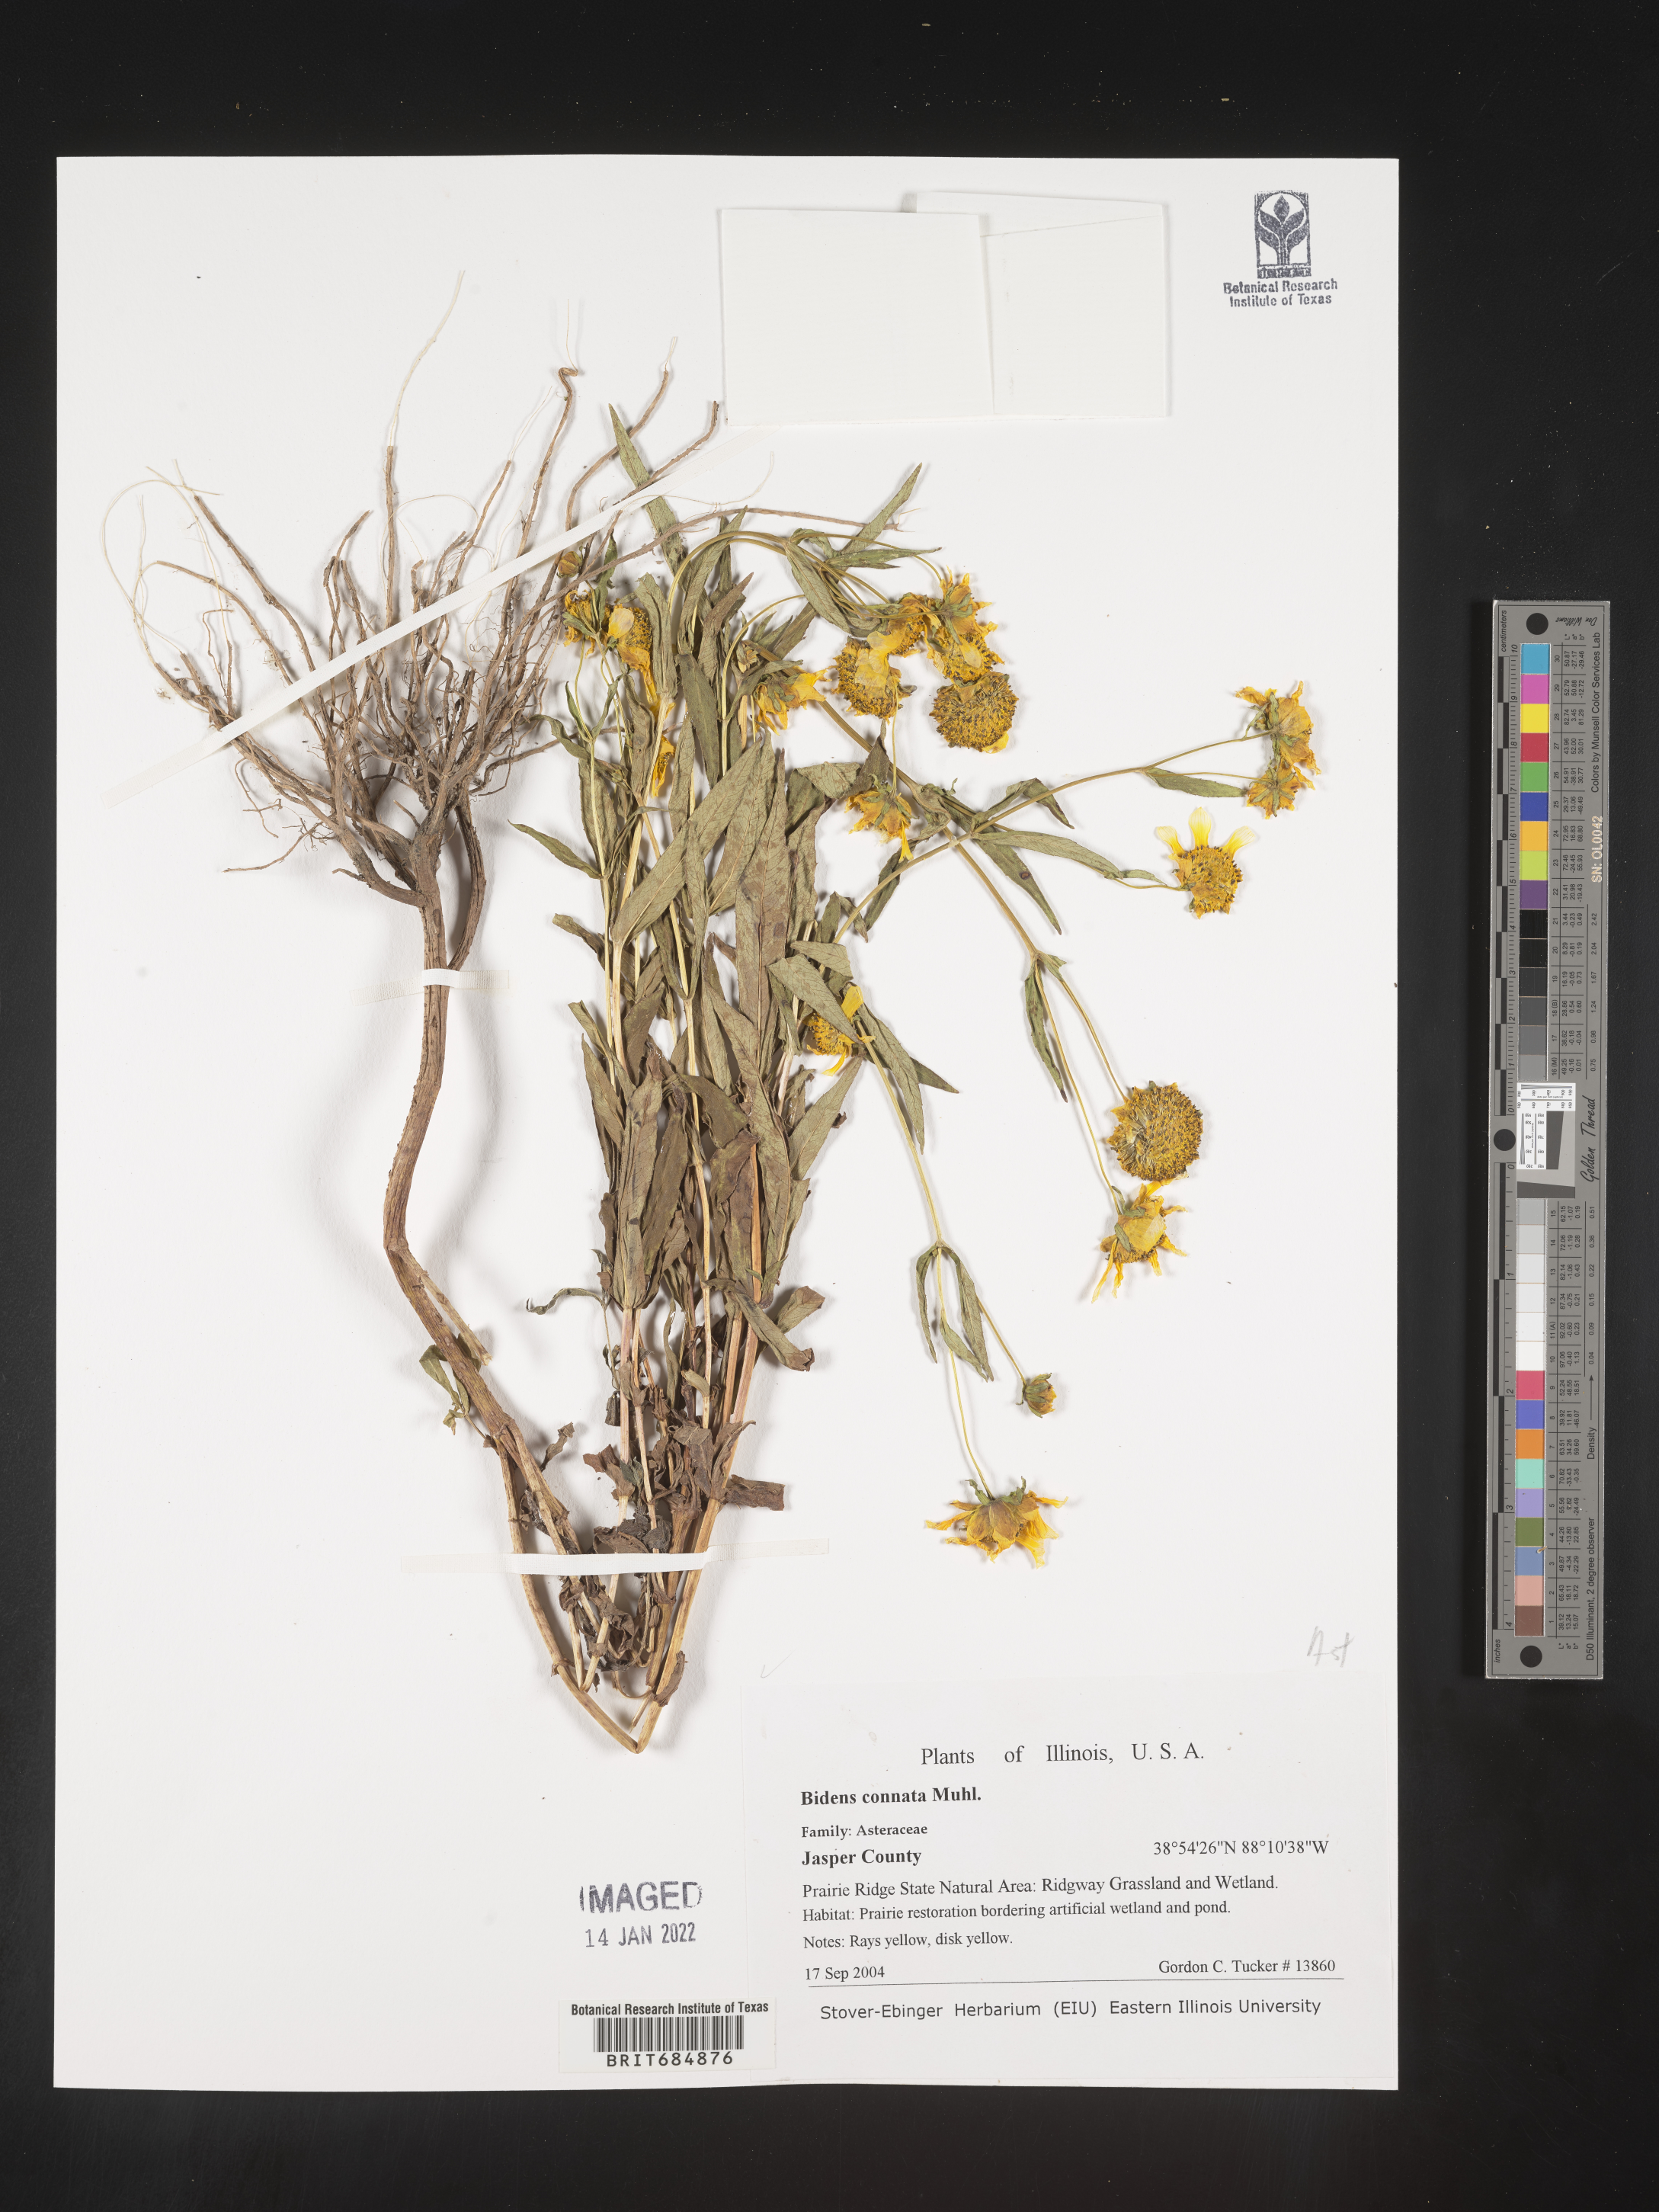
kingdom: Plantae
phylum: Tracheophyta
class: Magnoliopsida
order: Asterales
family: Asteraceae
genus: Bidens
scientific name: Bidens tripartita
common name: Trifid bur-marigold
